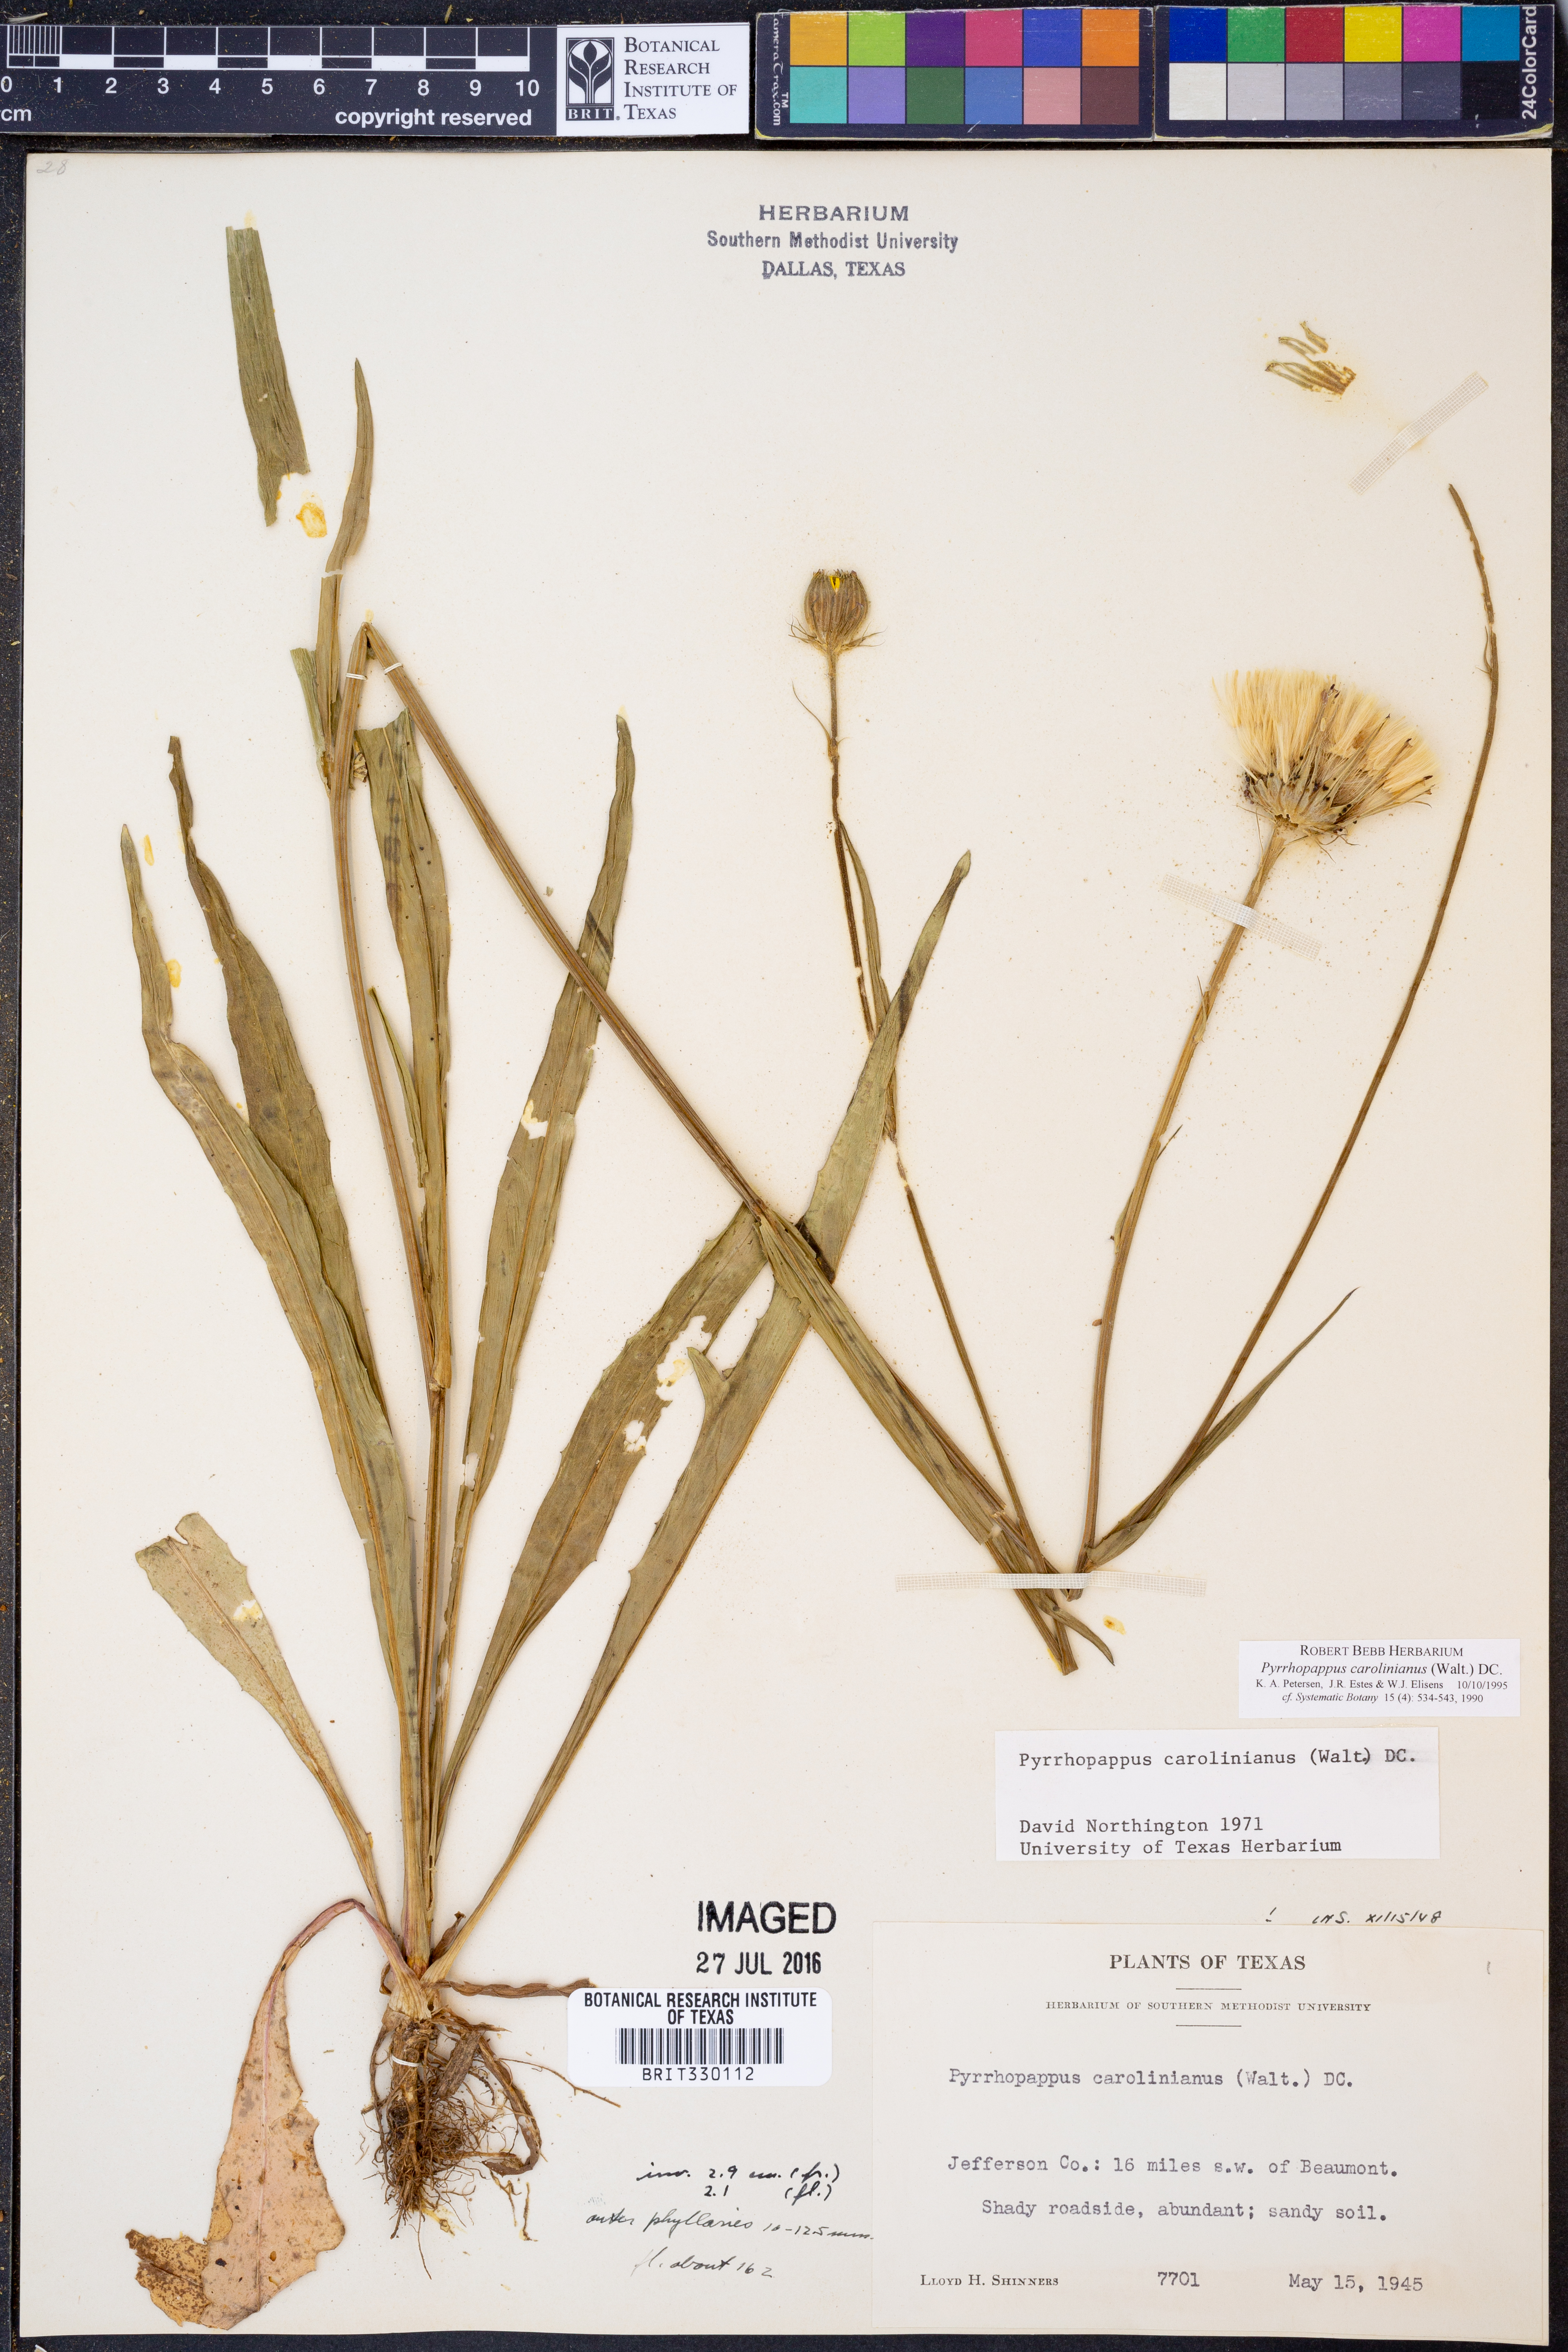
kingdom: Plantae
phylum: Tracheophyta
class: Magnoliopsida
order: Asterales
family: Asteraceae
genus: Pyrrhopappus
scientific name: Pyrrhopappus carolinianus
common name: Carolina desert-chicory
